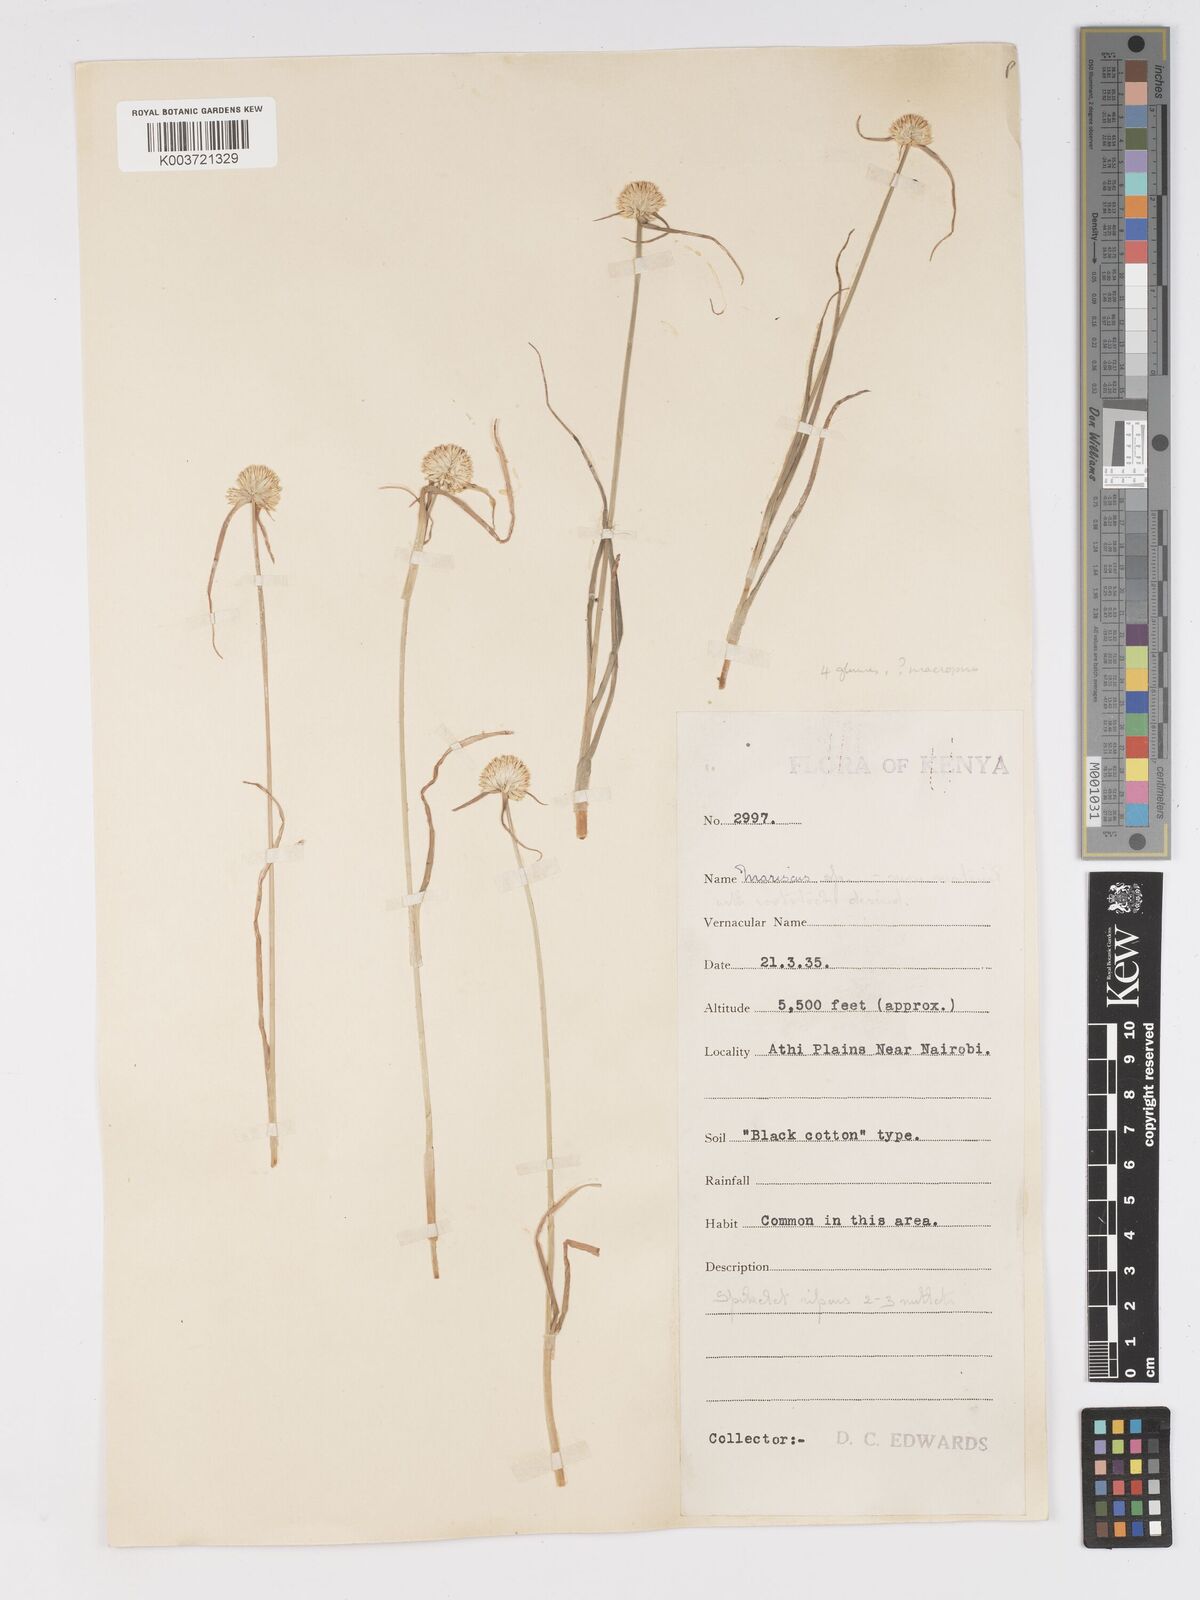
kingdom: Plantae
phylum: Tracheophyta
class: Liliopsida
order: Poales
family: Cyperaceae
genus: Cyperus
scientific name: Cyperus mollipes
